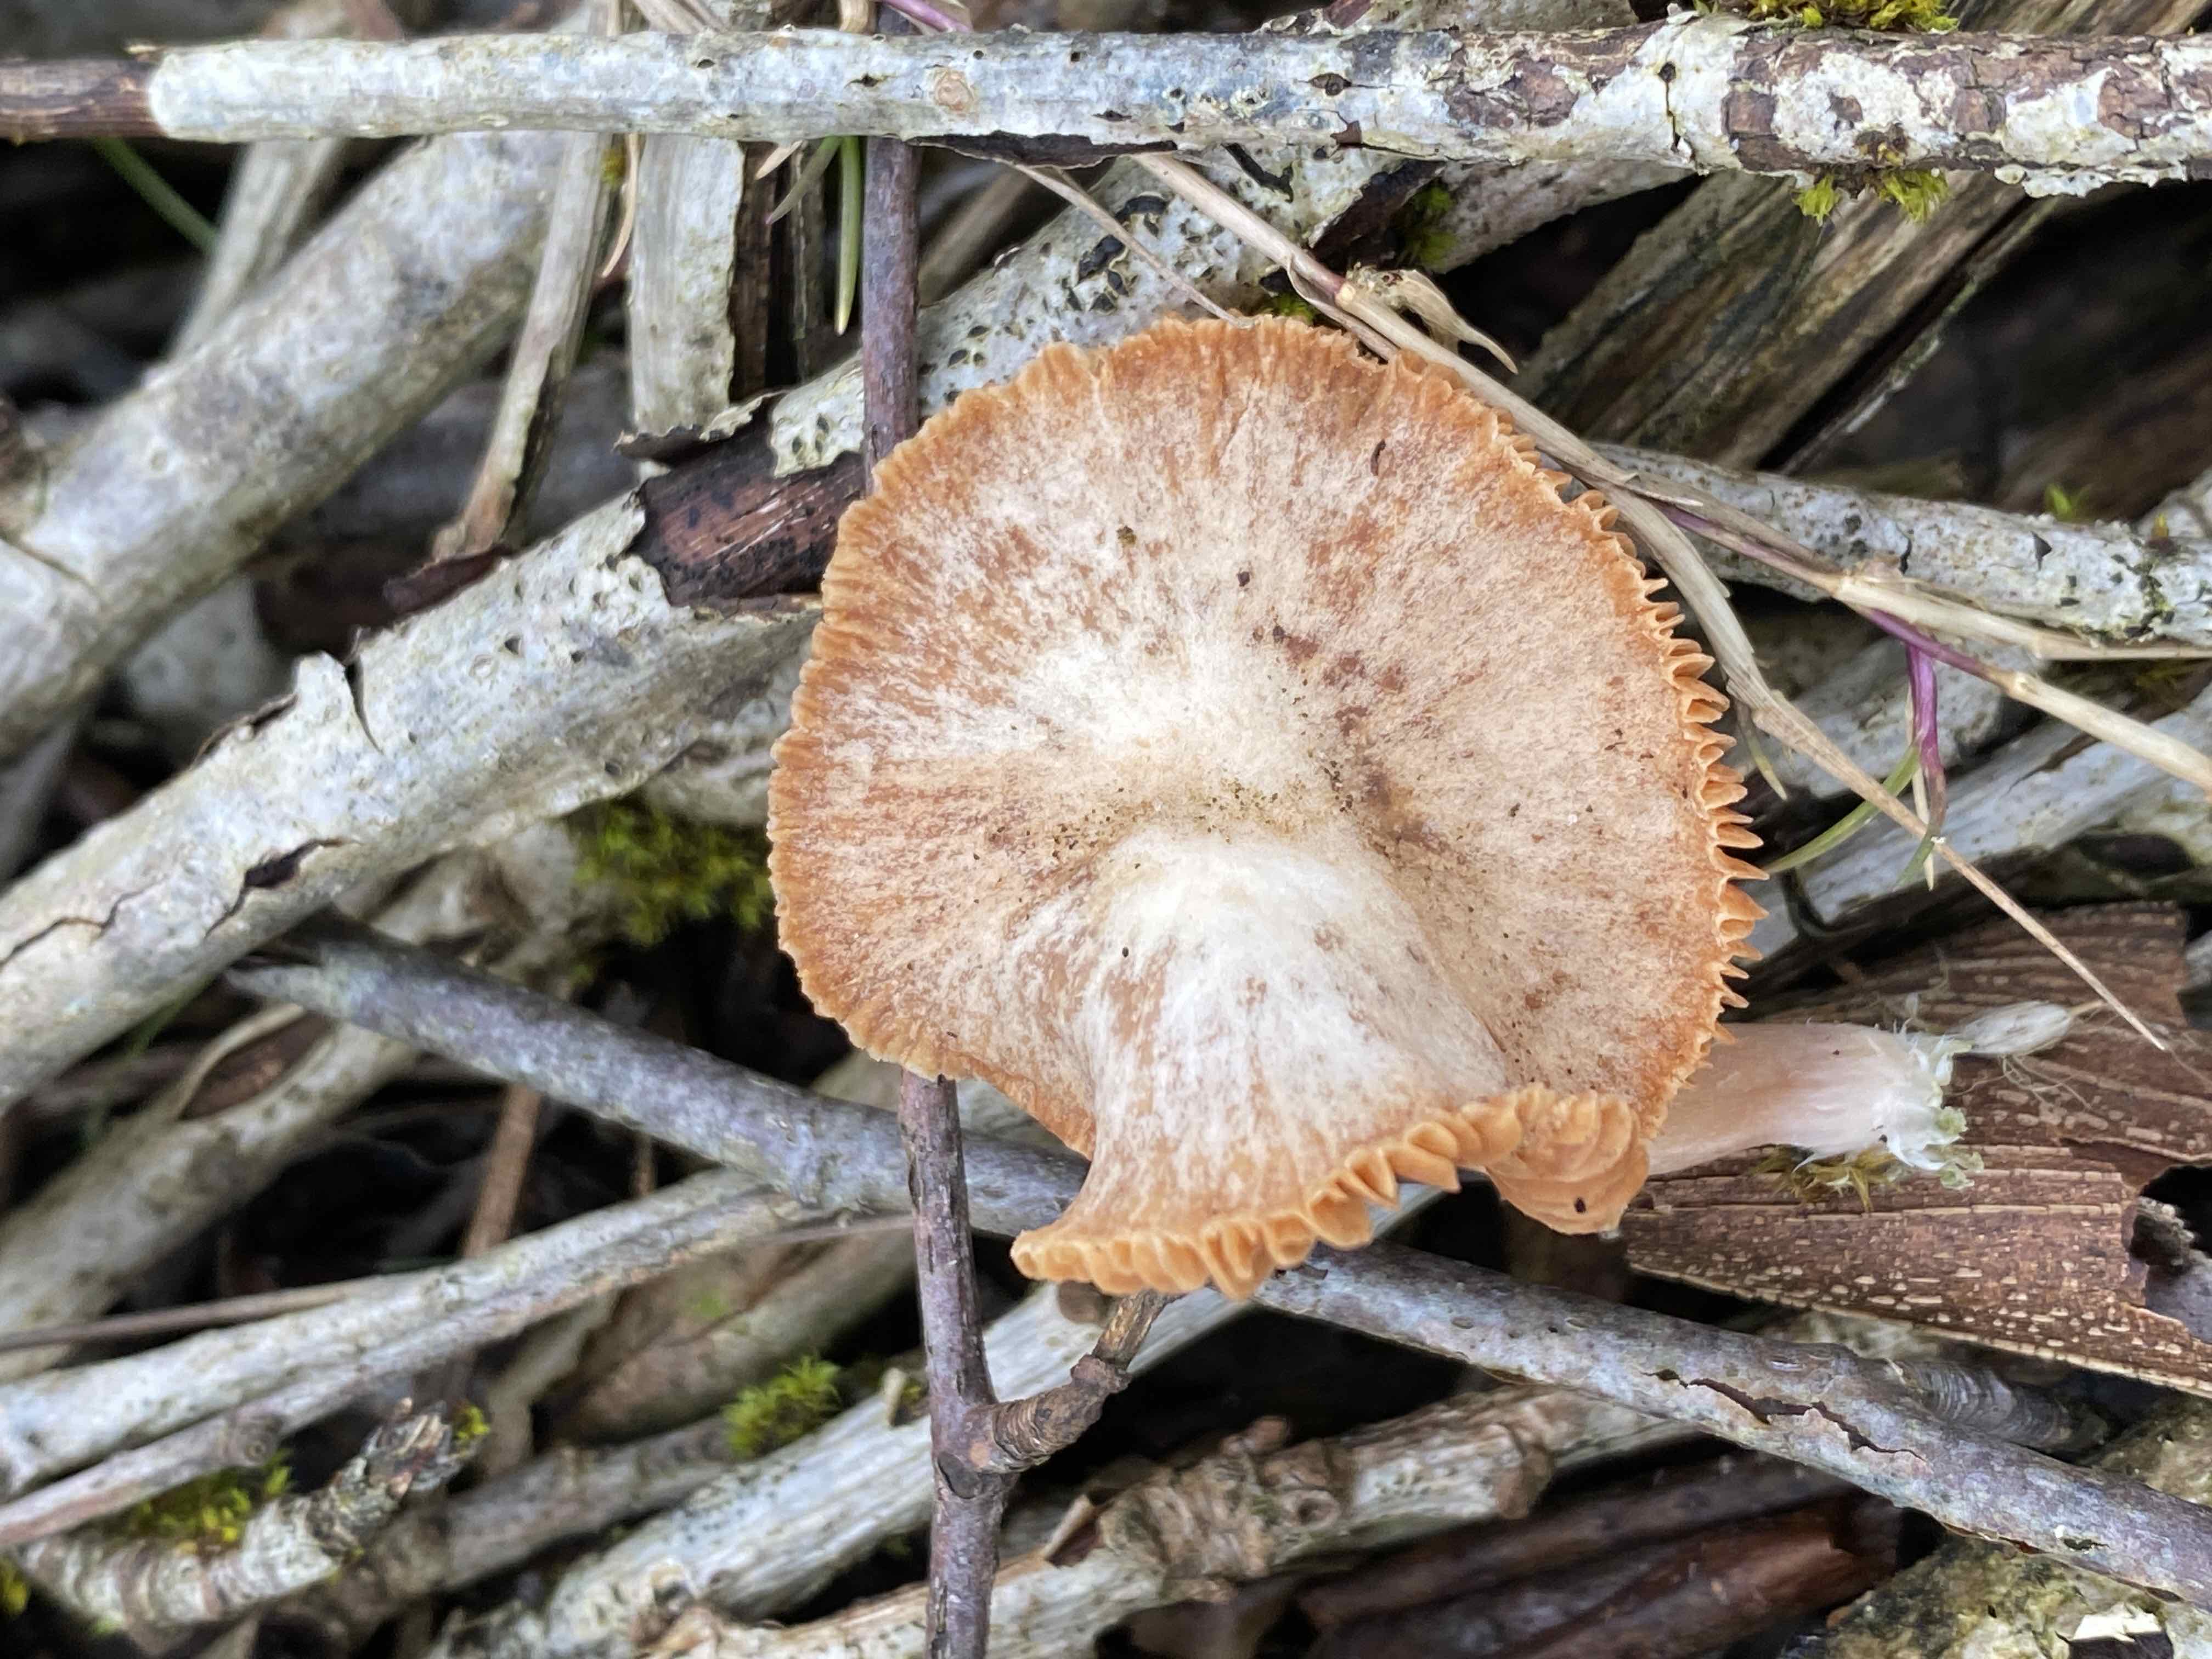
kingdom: Fungi
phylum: Basidiomycota
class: Agaricomycetes
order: Agaricales
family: Tubariaceae
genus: Tubaria
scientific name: Tubaria furfuracea
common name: kliddet fnughat
